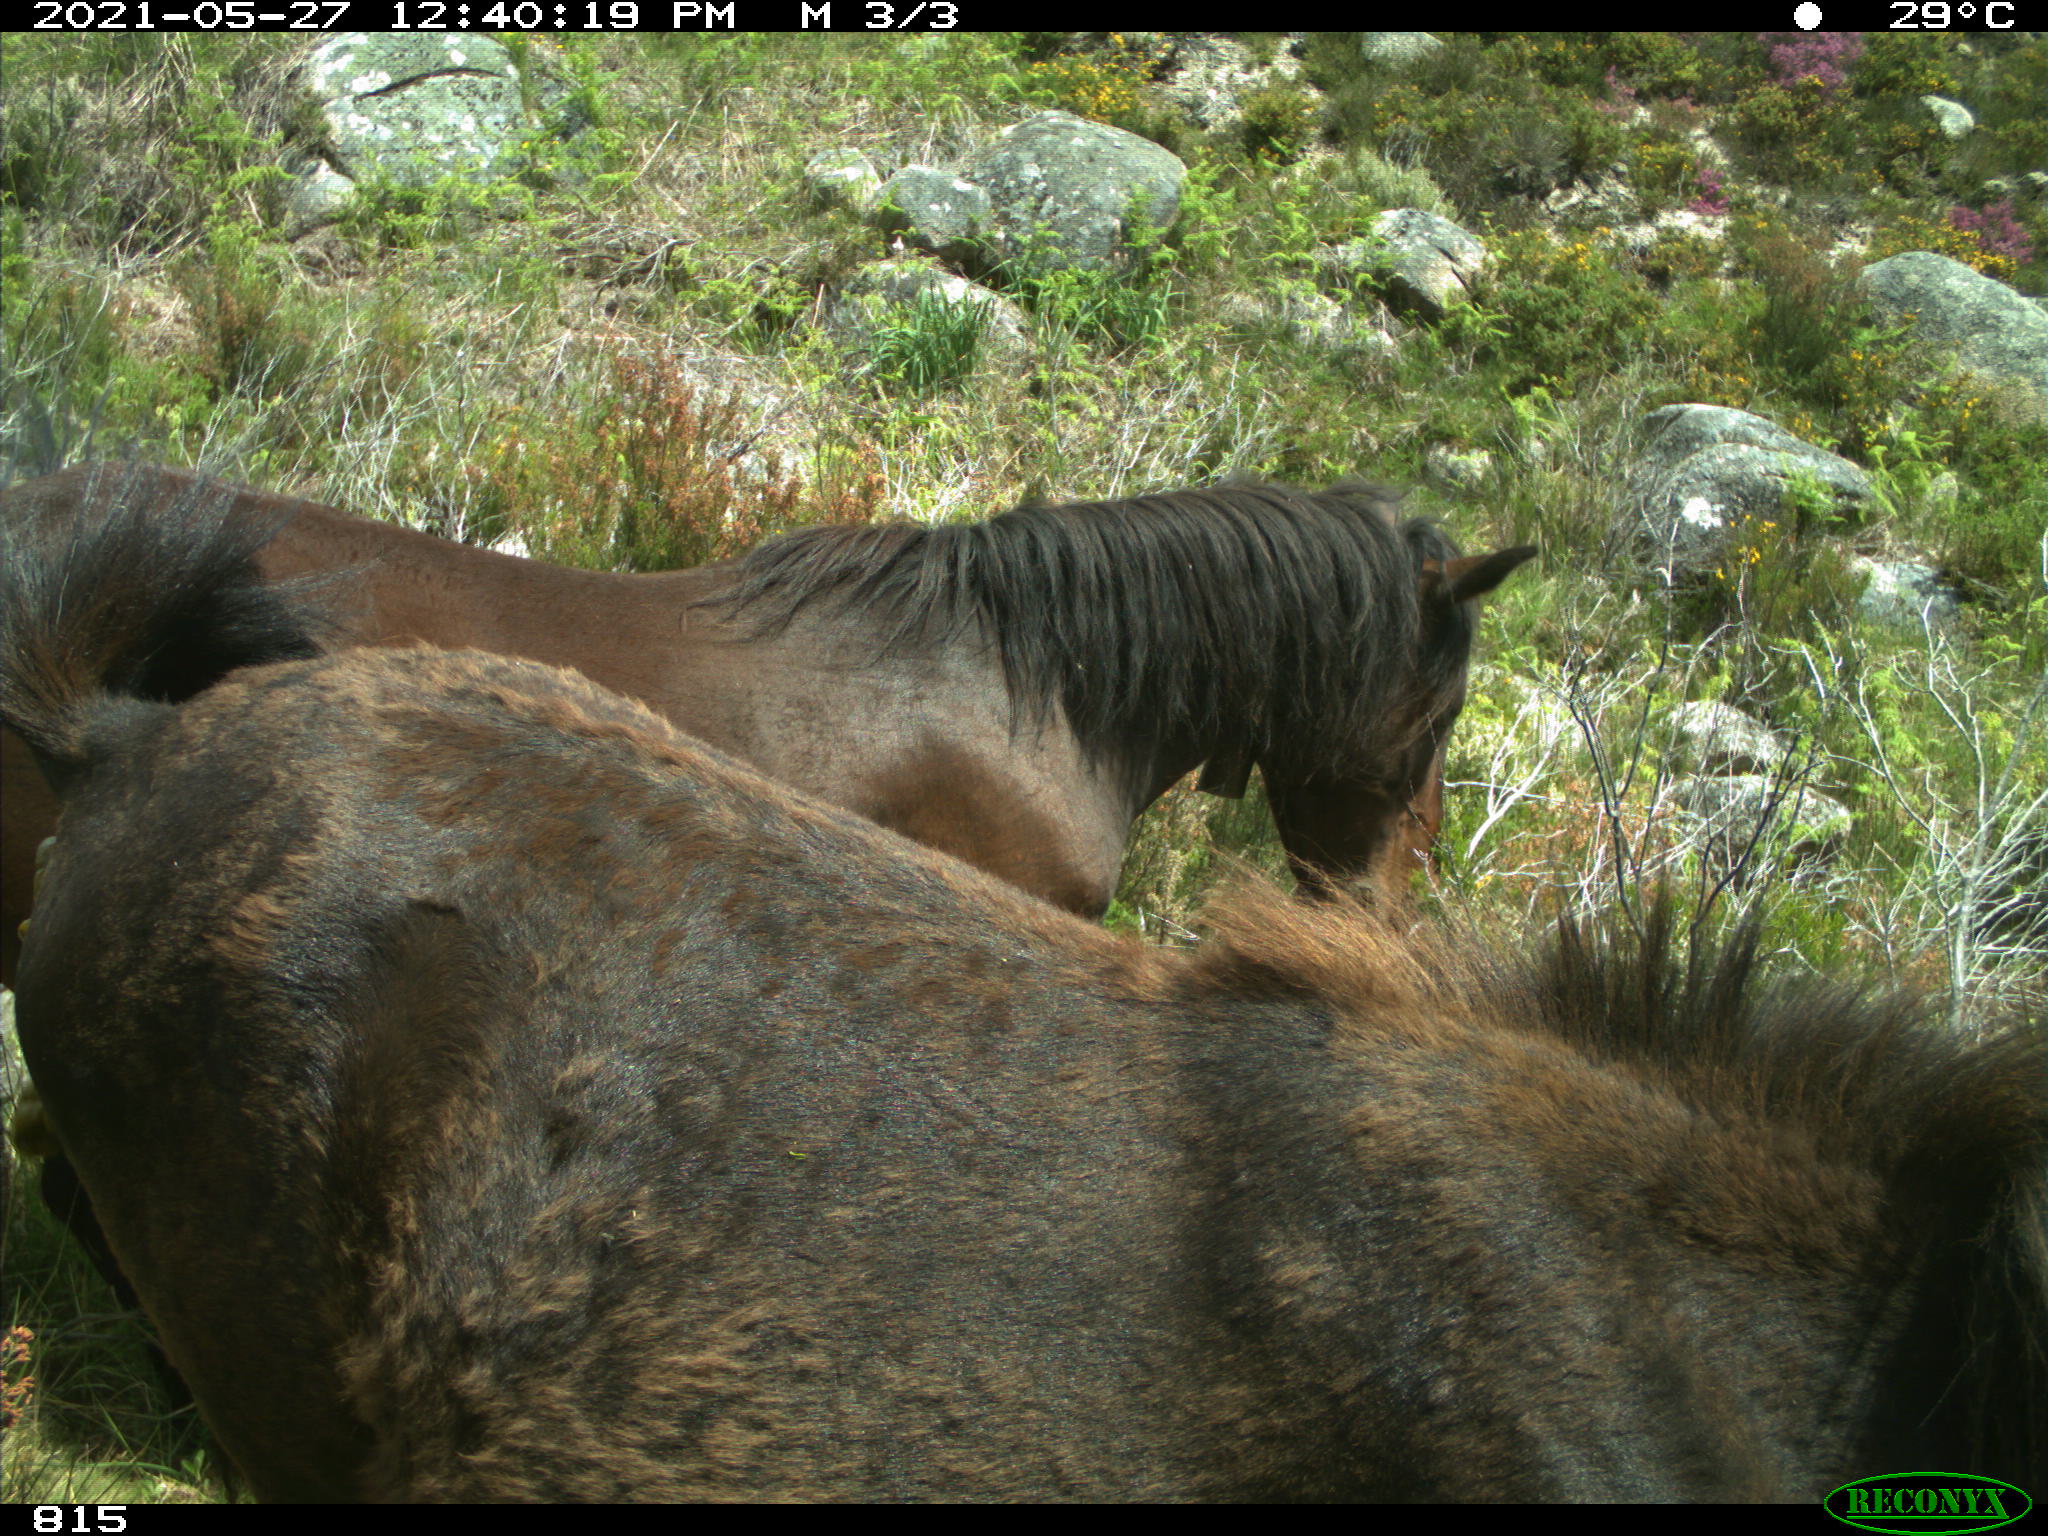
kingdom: Animalia
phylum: Chordata
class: Mammalia
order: Perissodactyla
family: Equidae
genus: Equus
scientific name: Equus caballus
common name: Horse
